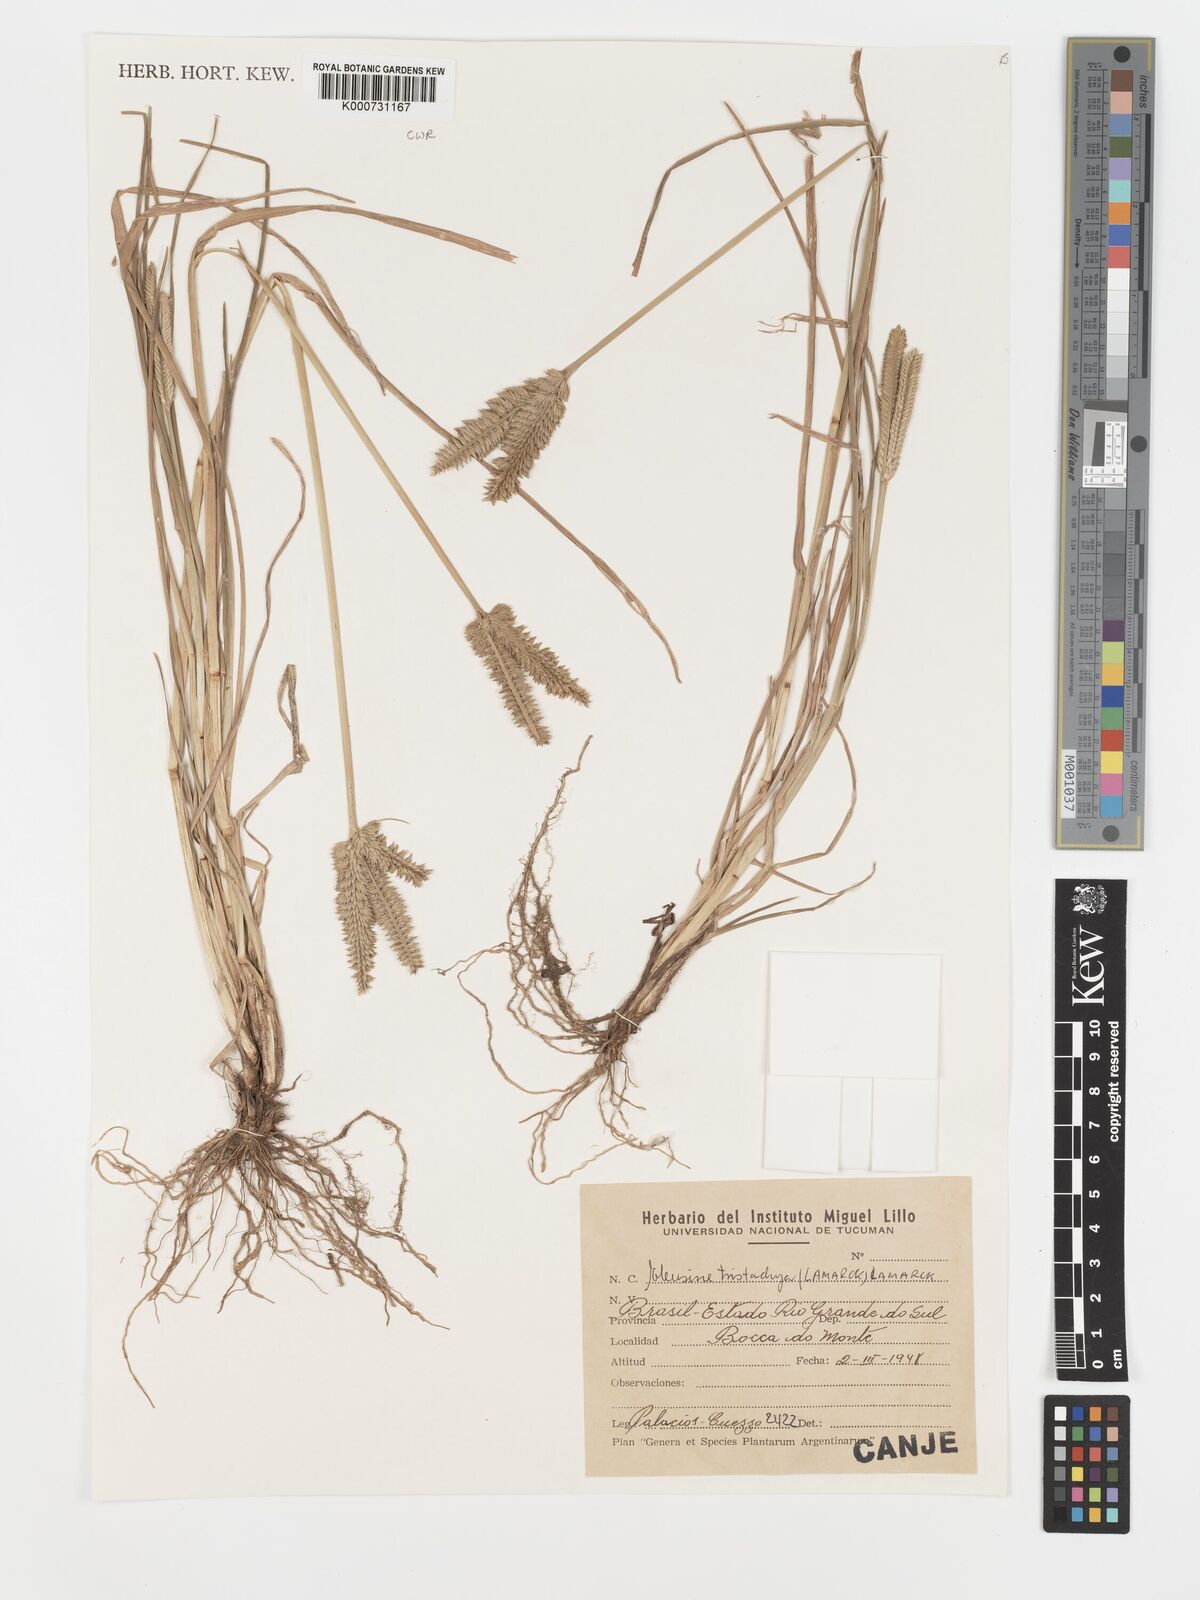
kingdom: Plantae
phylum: Tracheophyta
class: Liliopsida
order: Poales
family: Poaceae
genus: Eleusine
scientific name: Eleusine tristachya
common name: American yard-grass
